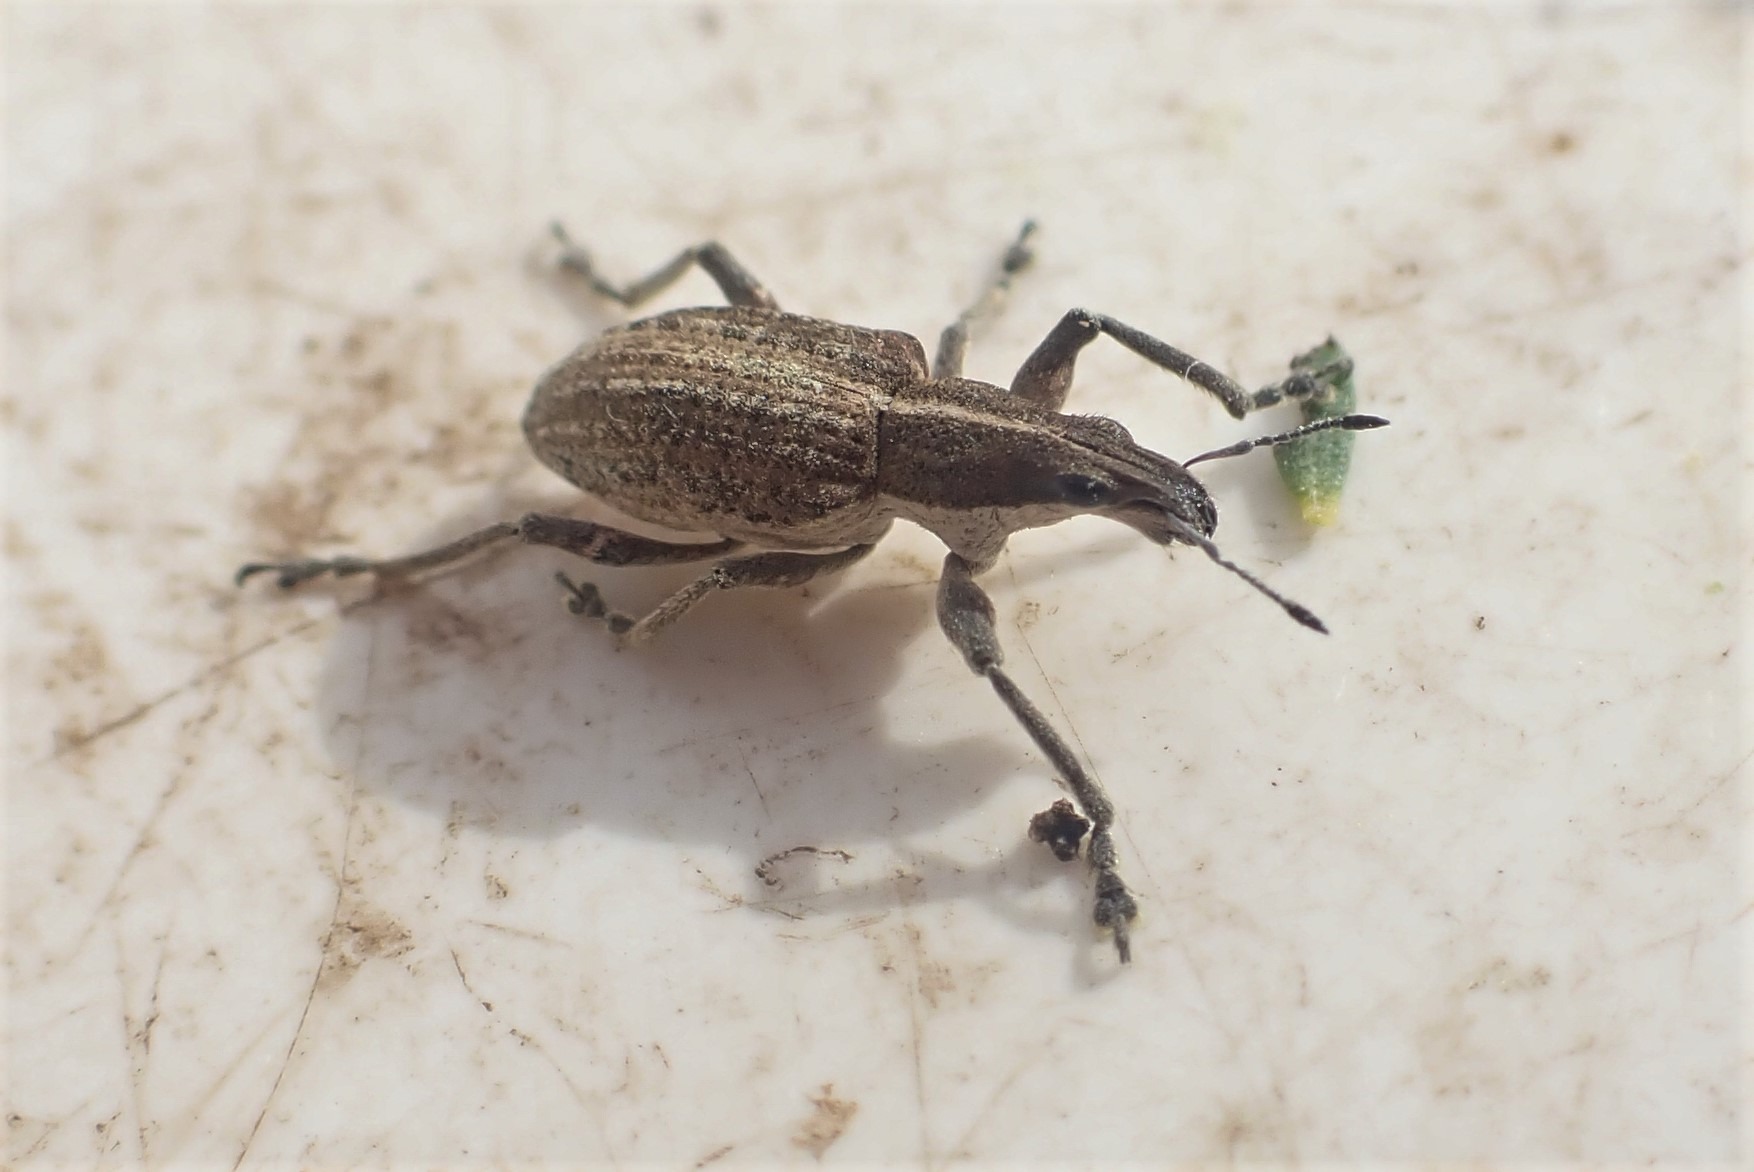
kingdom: Animalia
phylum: Arthropoda
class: Insecta
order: Coleoptera
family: Curculionidae
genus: Charagmus
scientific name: Charagmus gressorius
